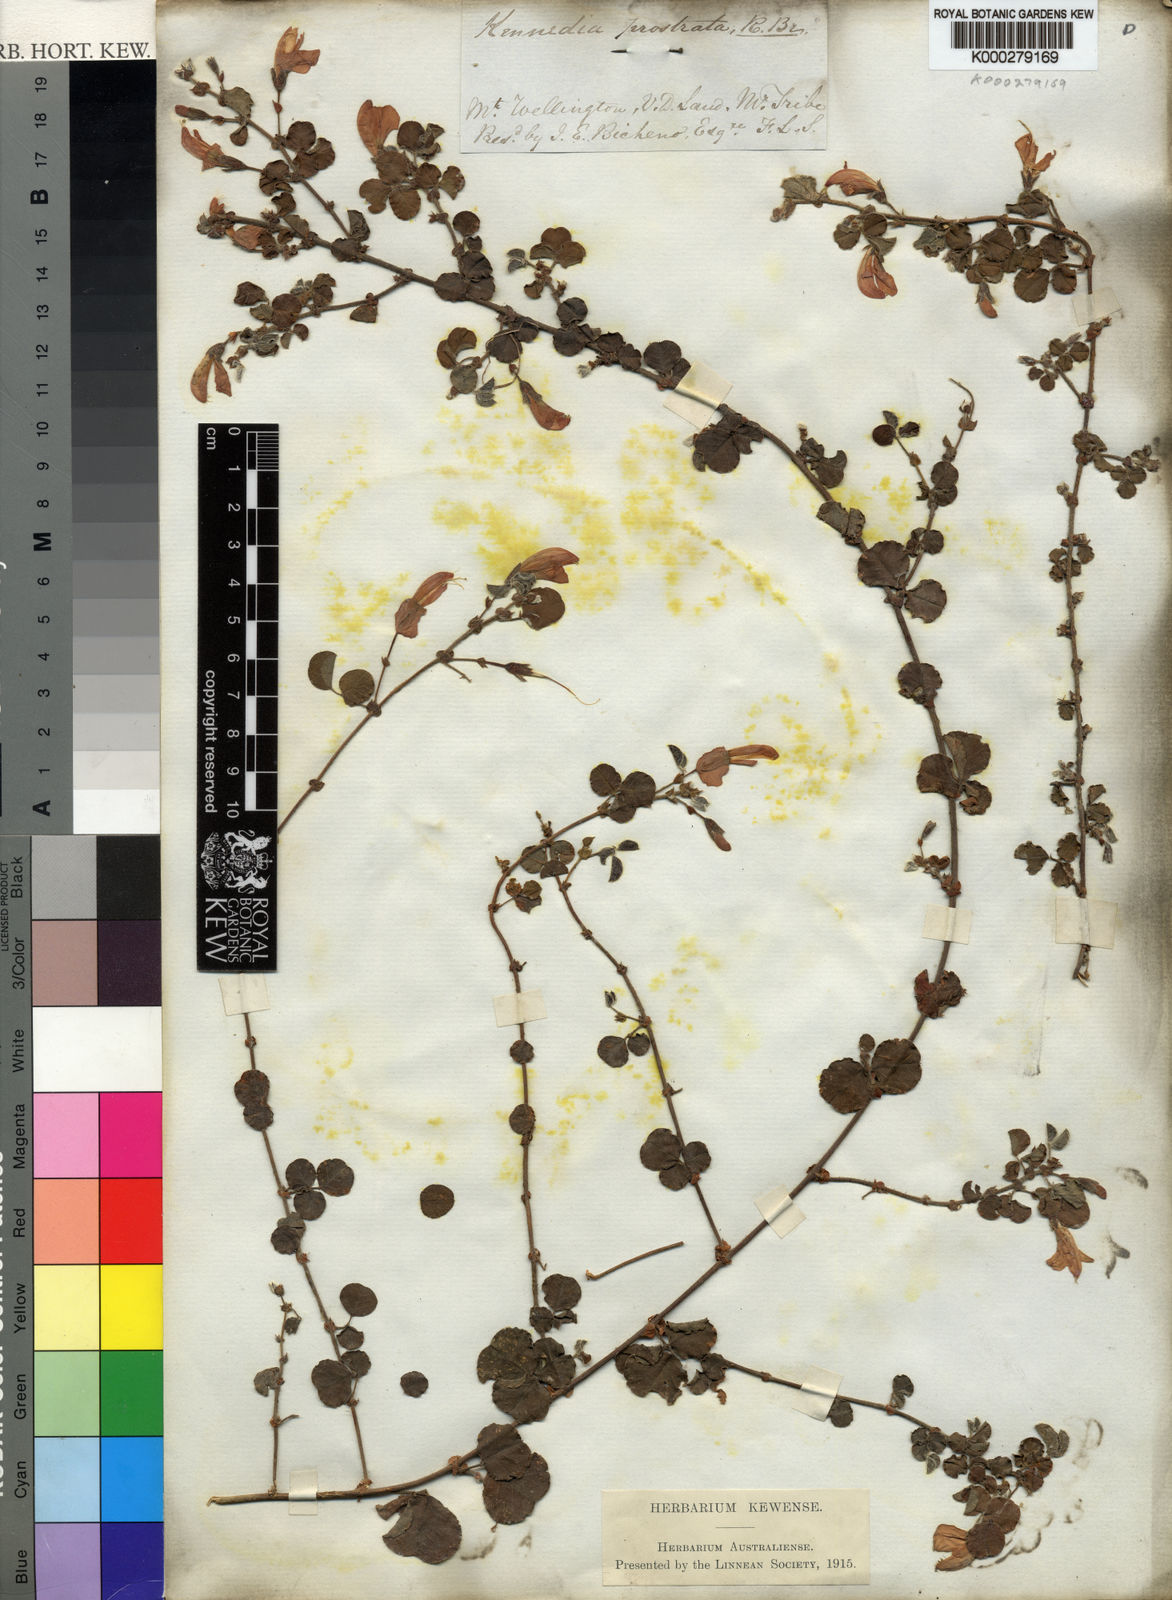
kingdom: Plantae
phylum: Tracheophyta
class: Magnoliopsida
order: Fabales
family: Fabaceae
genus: Kennedia
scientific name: Kennedia prostrata
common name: Running-postman
